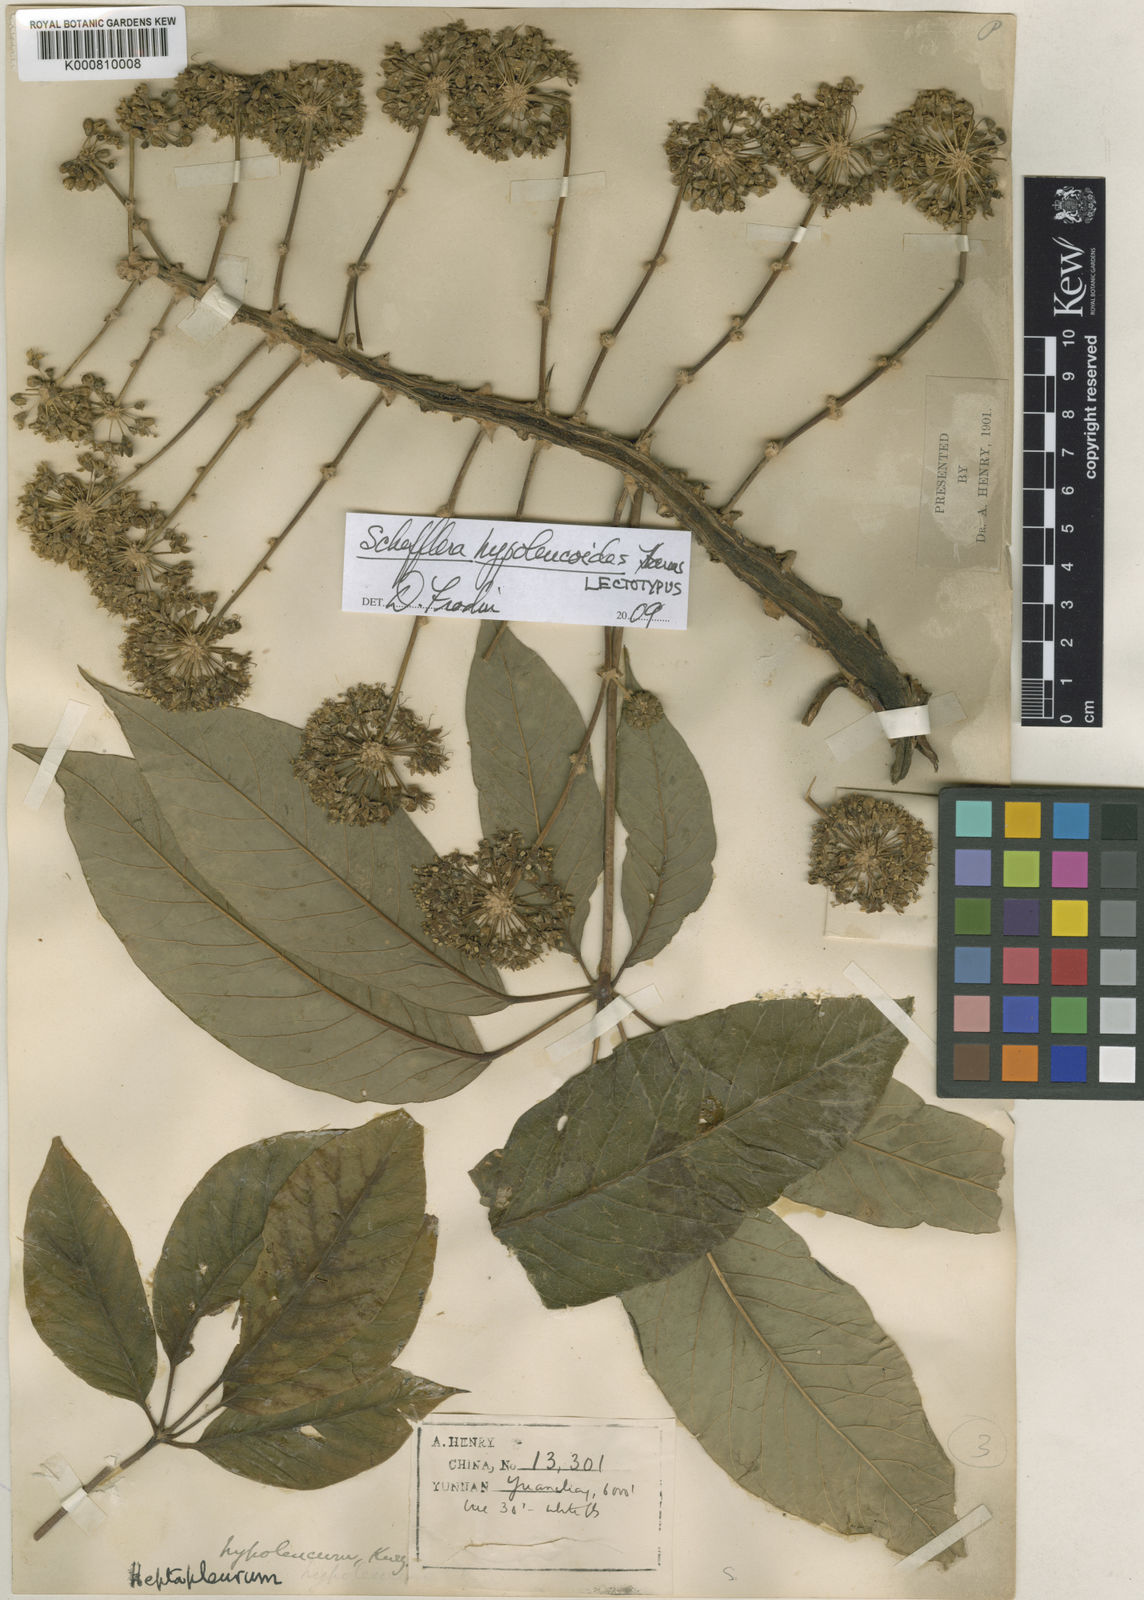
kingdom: Plantae
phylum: Tracheophyta
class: Magnoliopsida
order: Apiales
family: Araliaceae
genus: Heptapleurum
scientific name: Heptapleurum hypoleucoides
